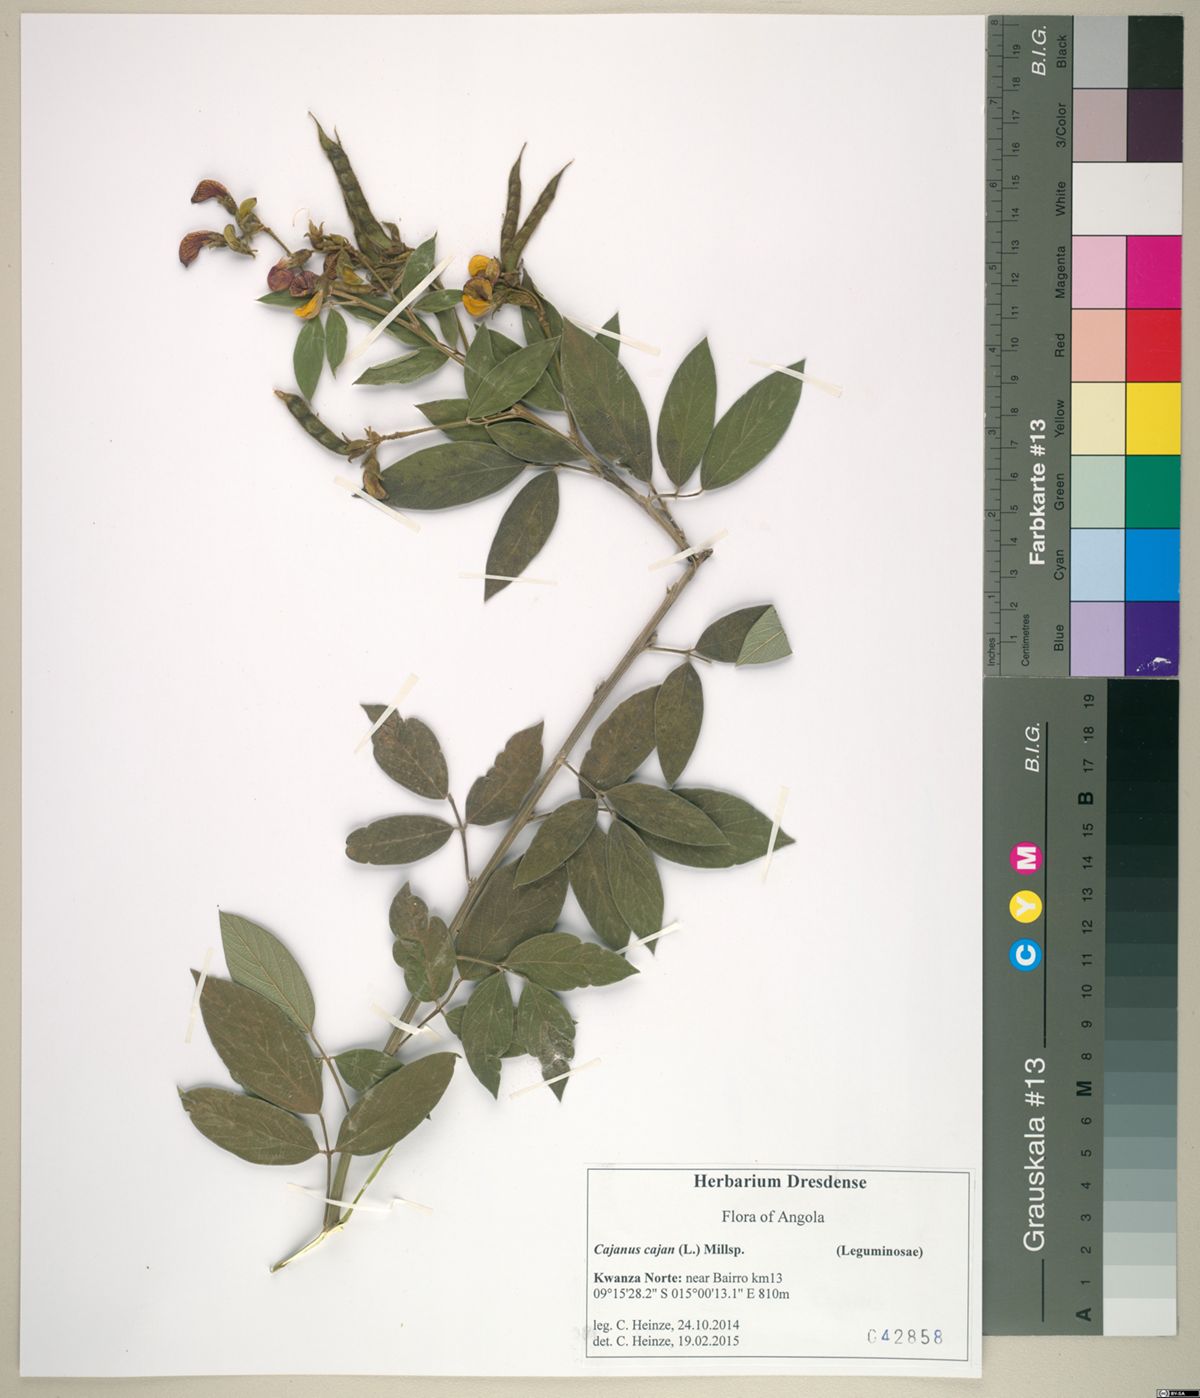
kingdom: Plantae
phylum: Tracheophyta
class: Magnoliopsida
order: Fabales
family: Fabaceae
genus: Cajanus
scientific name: Cajanus cajan
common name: Pigeonpea
